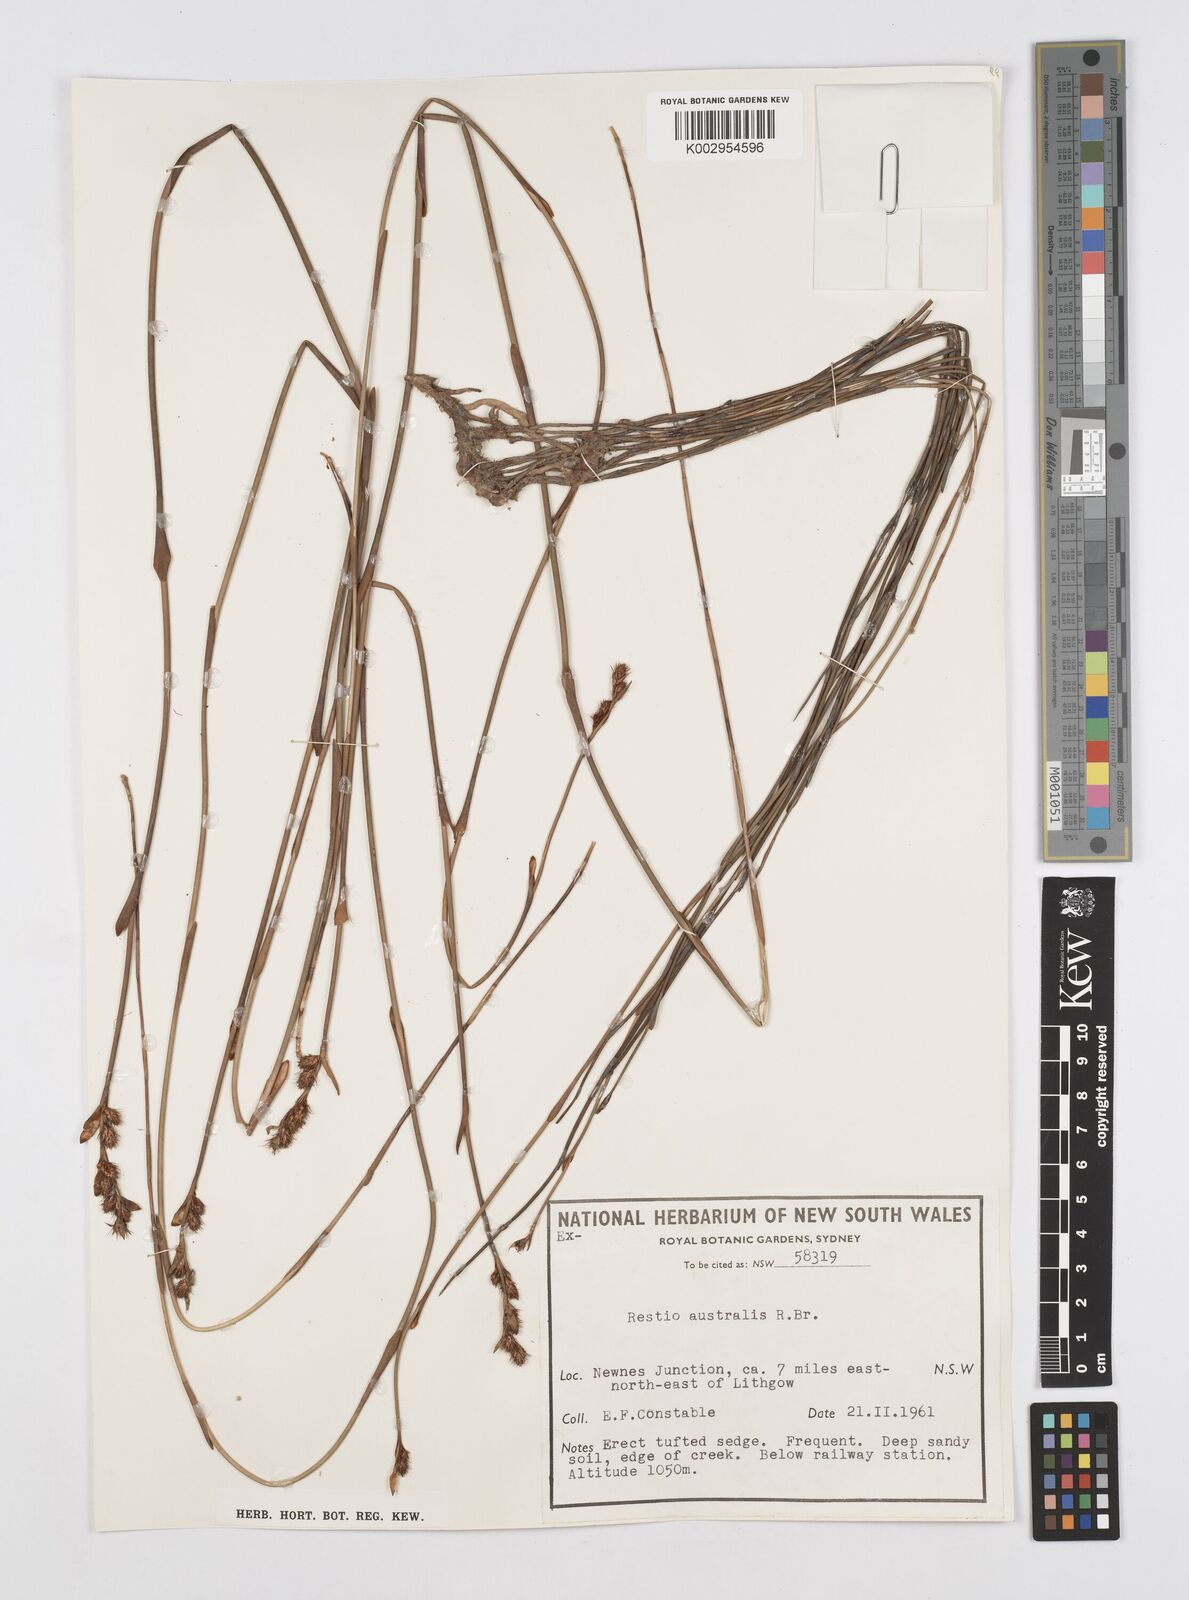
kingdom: Plantae
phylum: Tracheophyta
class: Liliopsida
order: Poales
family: Restionaceae
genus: Baloskion
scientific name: Baloskion australe
